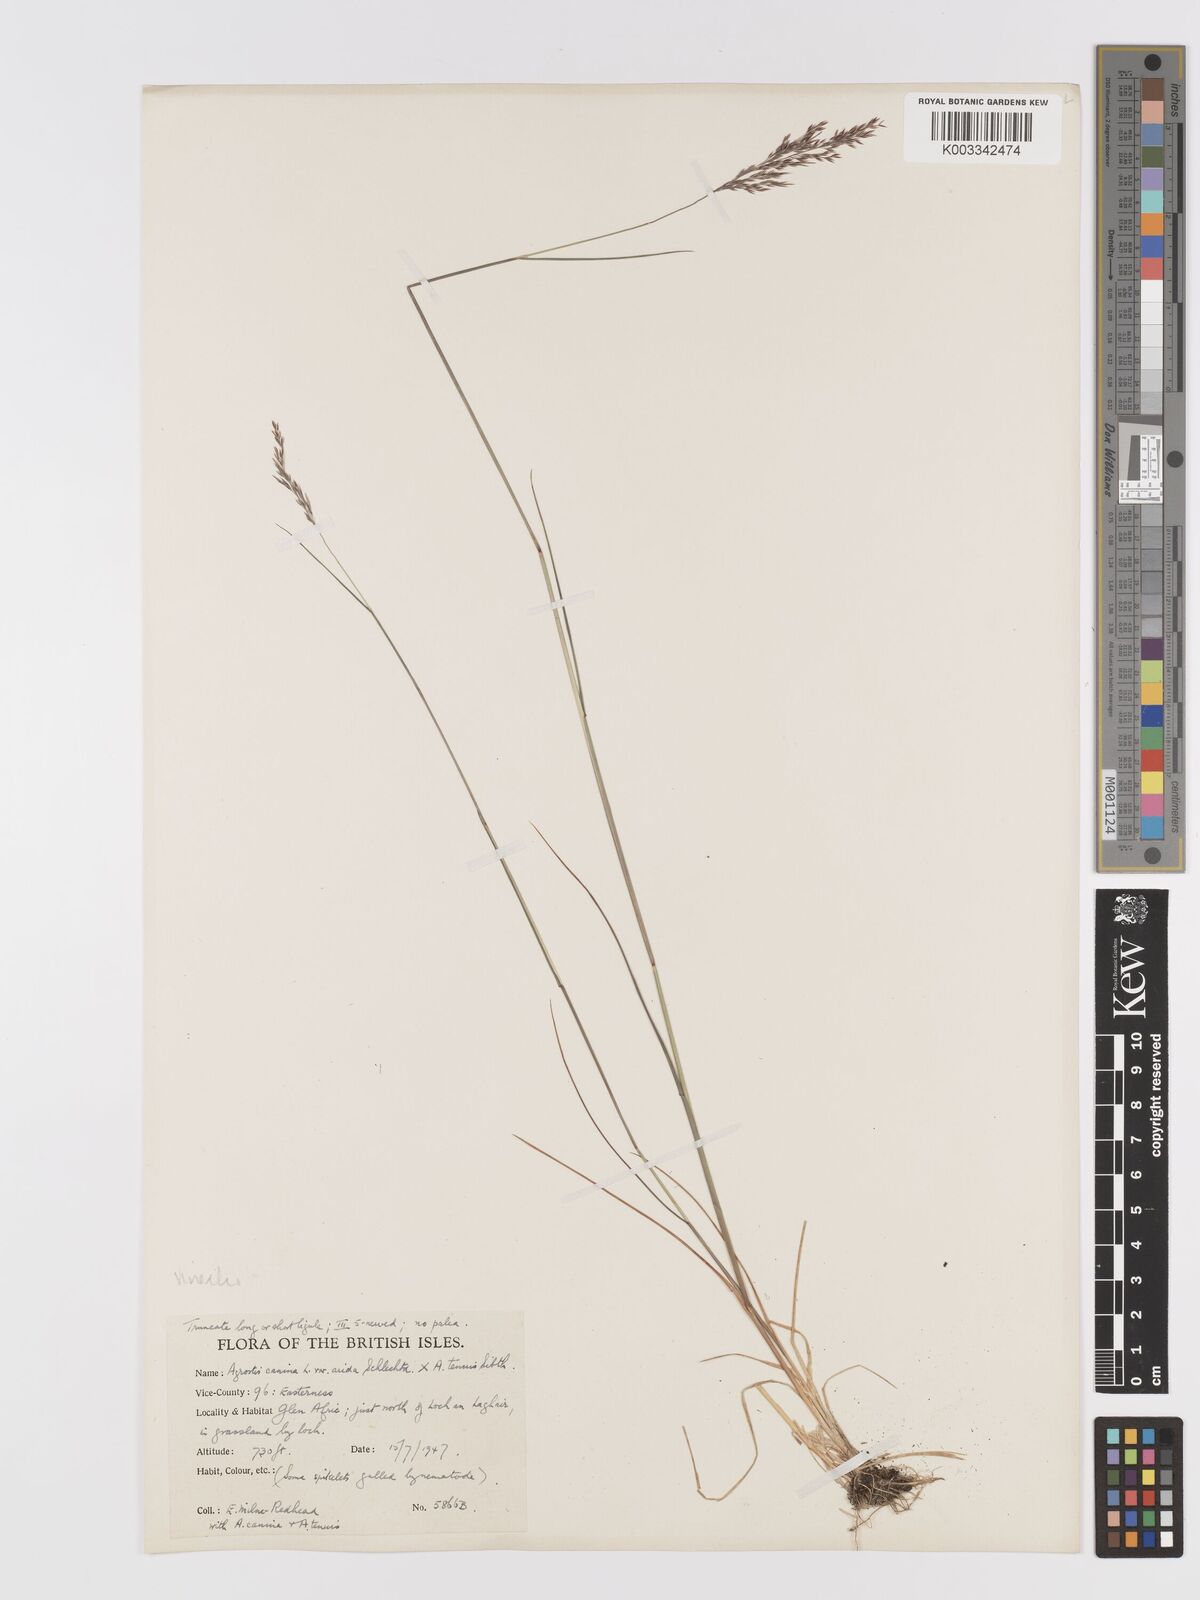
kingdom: Plantae
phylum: Tracheophyta
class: Liliopsida
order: Poales
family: Poaceae
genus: Agrostis
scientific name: Agrostis capillaris
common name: Colonial bentgrass
